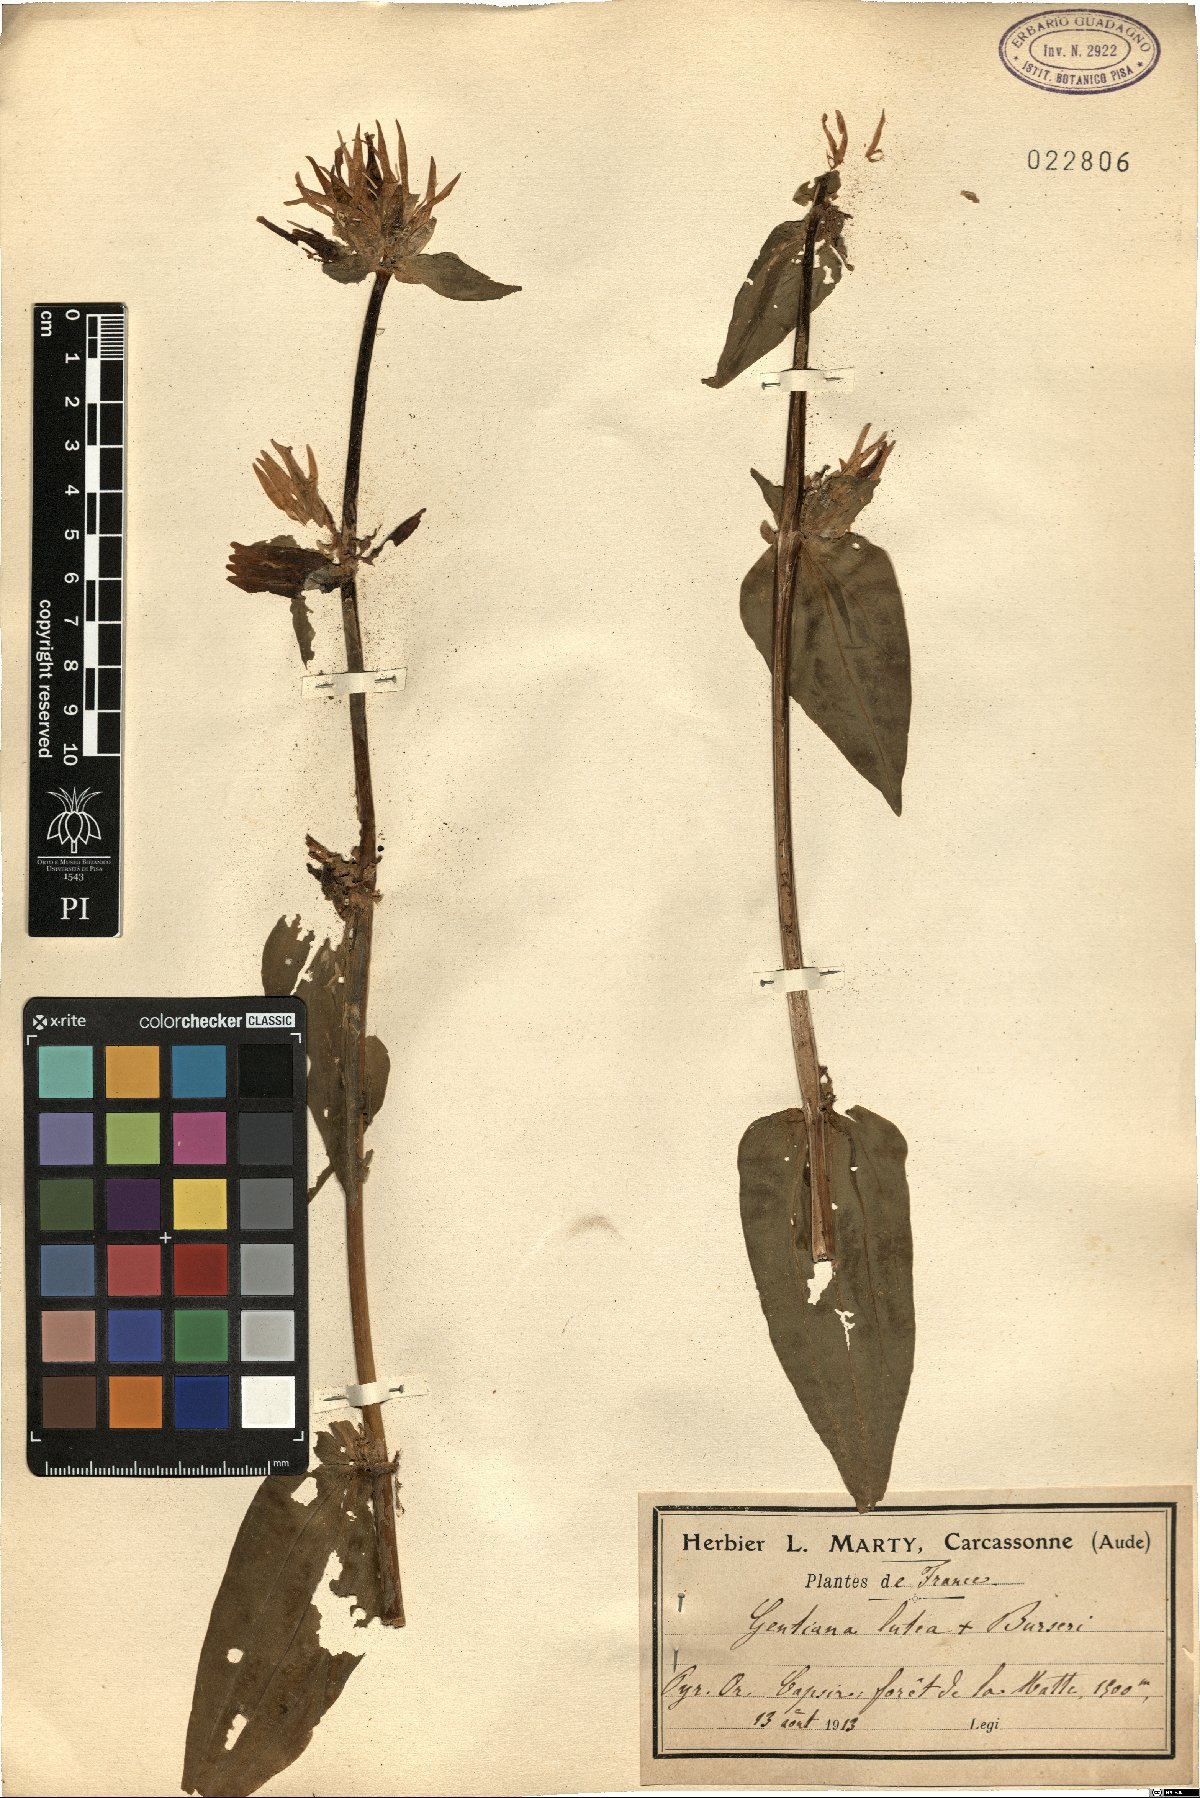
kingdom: Plantae
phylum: Tracheophyta
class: Magnoliopsida
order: Gentianales
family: Gentianaceae
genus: Gentiana
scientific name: Gentiana media
